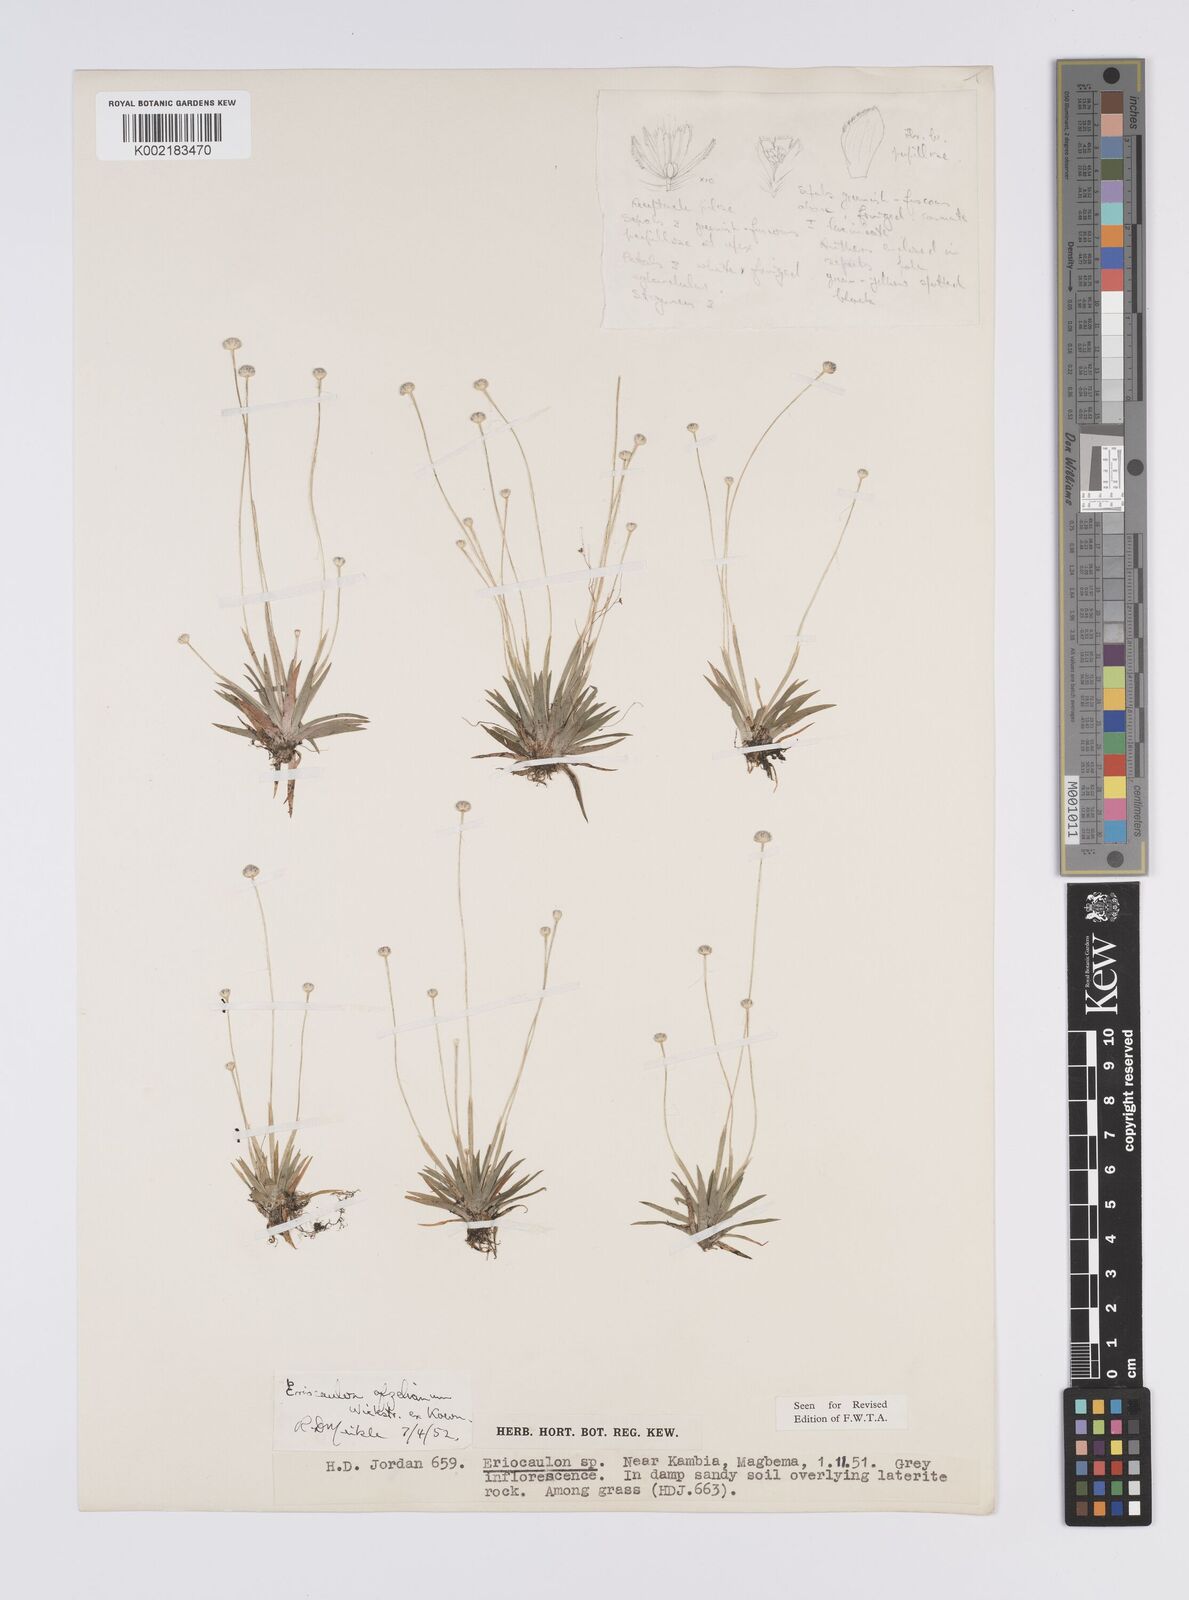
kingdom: Plantae
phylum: Tracheophyta
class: Liliopsida
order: Poales
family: Eriocaulaceae
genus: Eriocaulon
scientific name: Eriocaulon afzelianum
